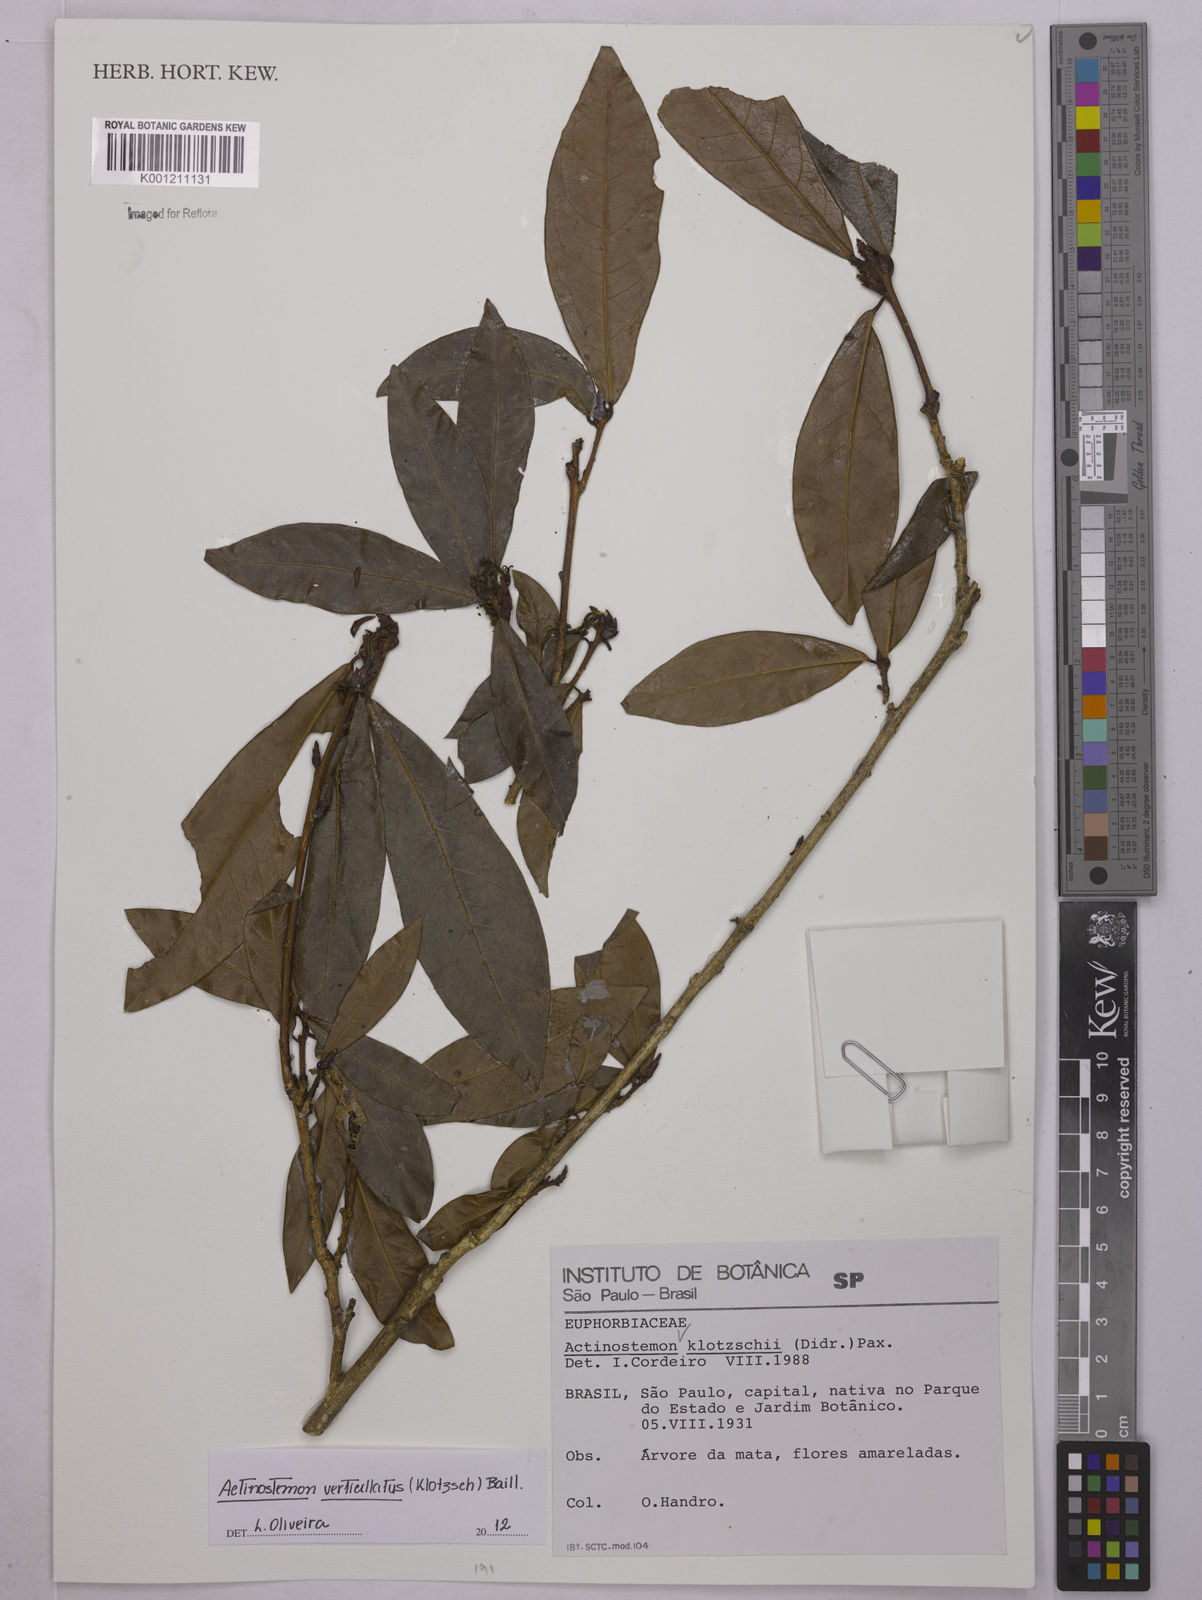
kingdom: Plantae
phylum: Tracheophyta
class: Magnoliopsida
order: Malpighiales
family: Euphorbiaceae
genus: Actinostemon
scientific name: Actinostemon verticillatus
